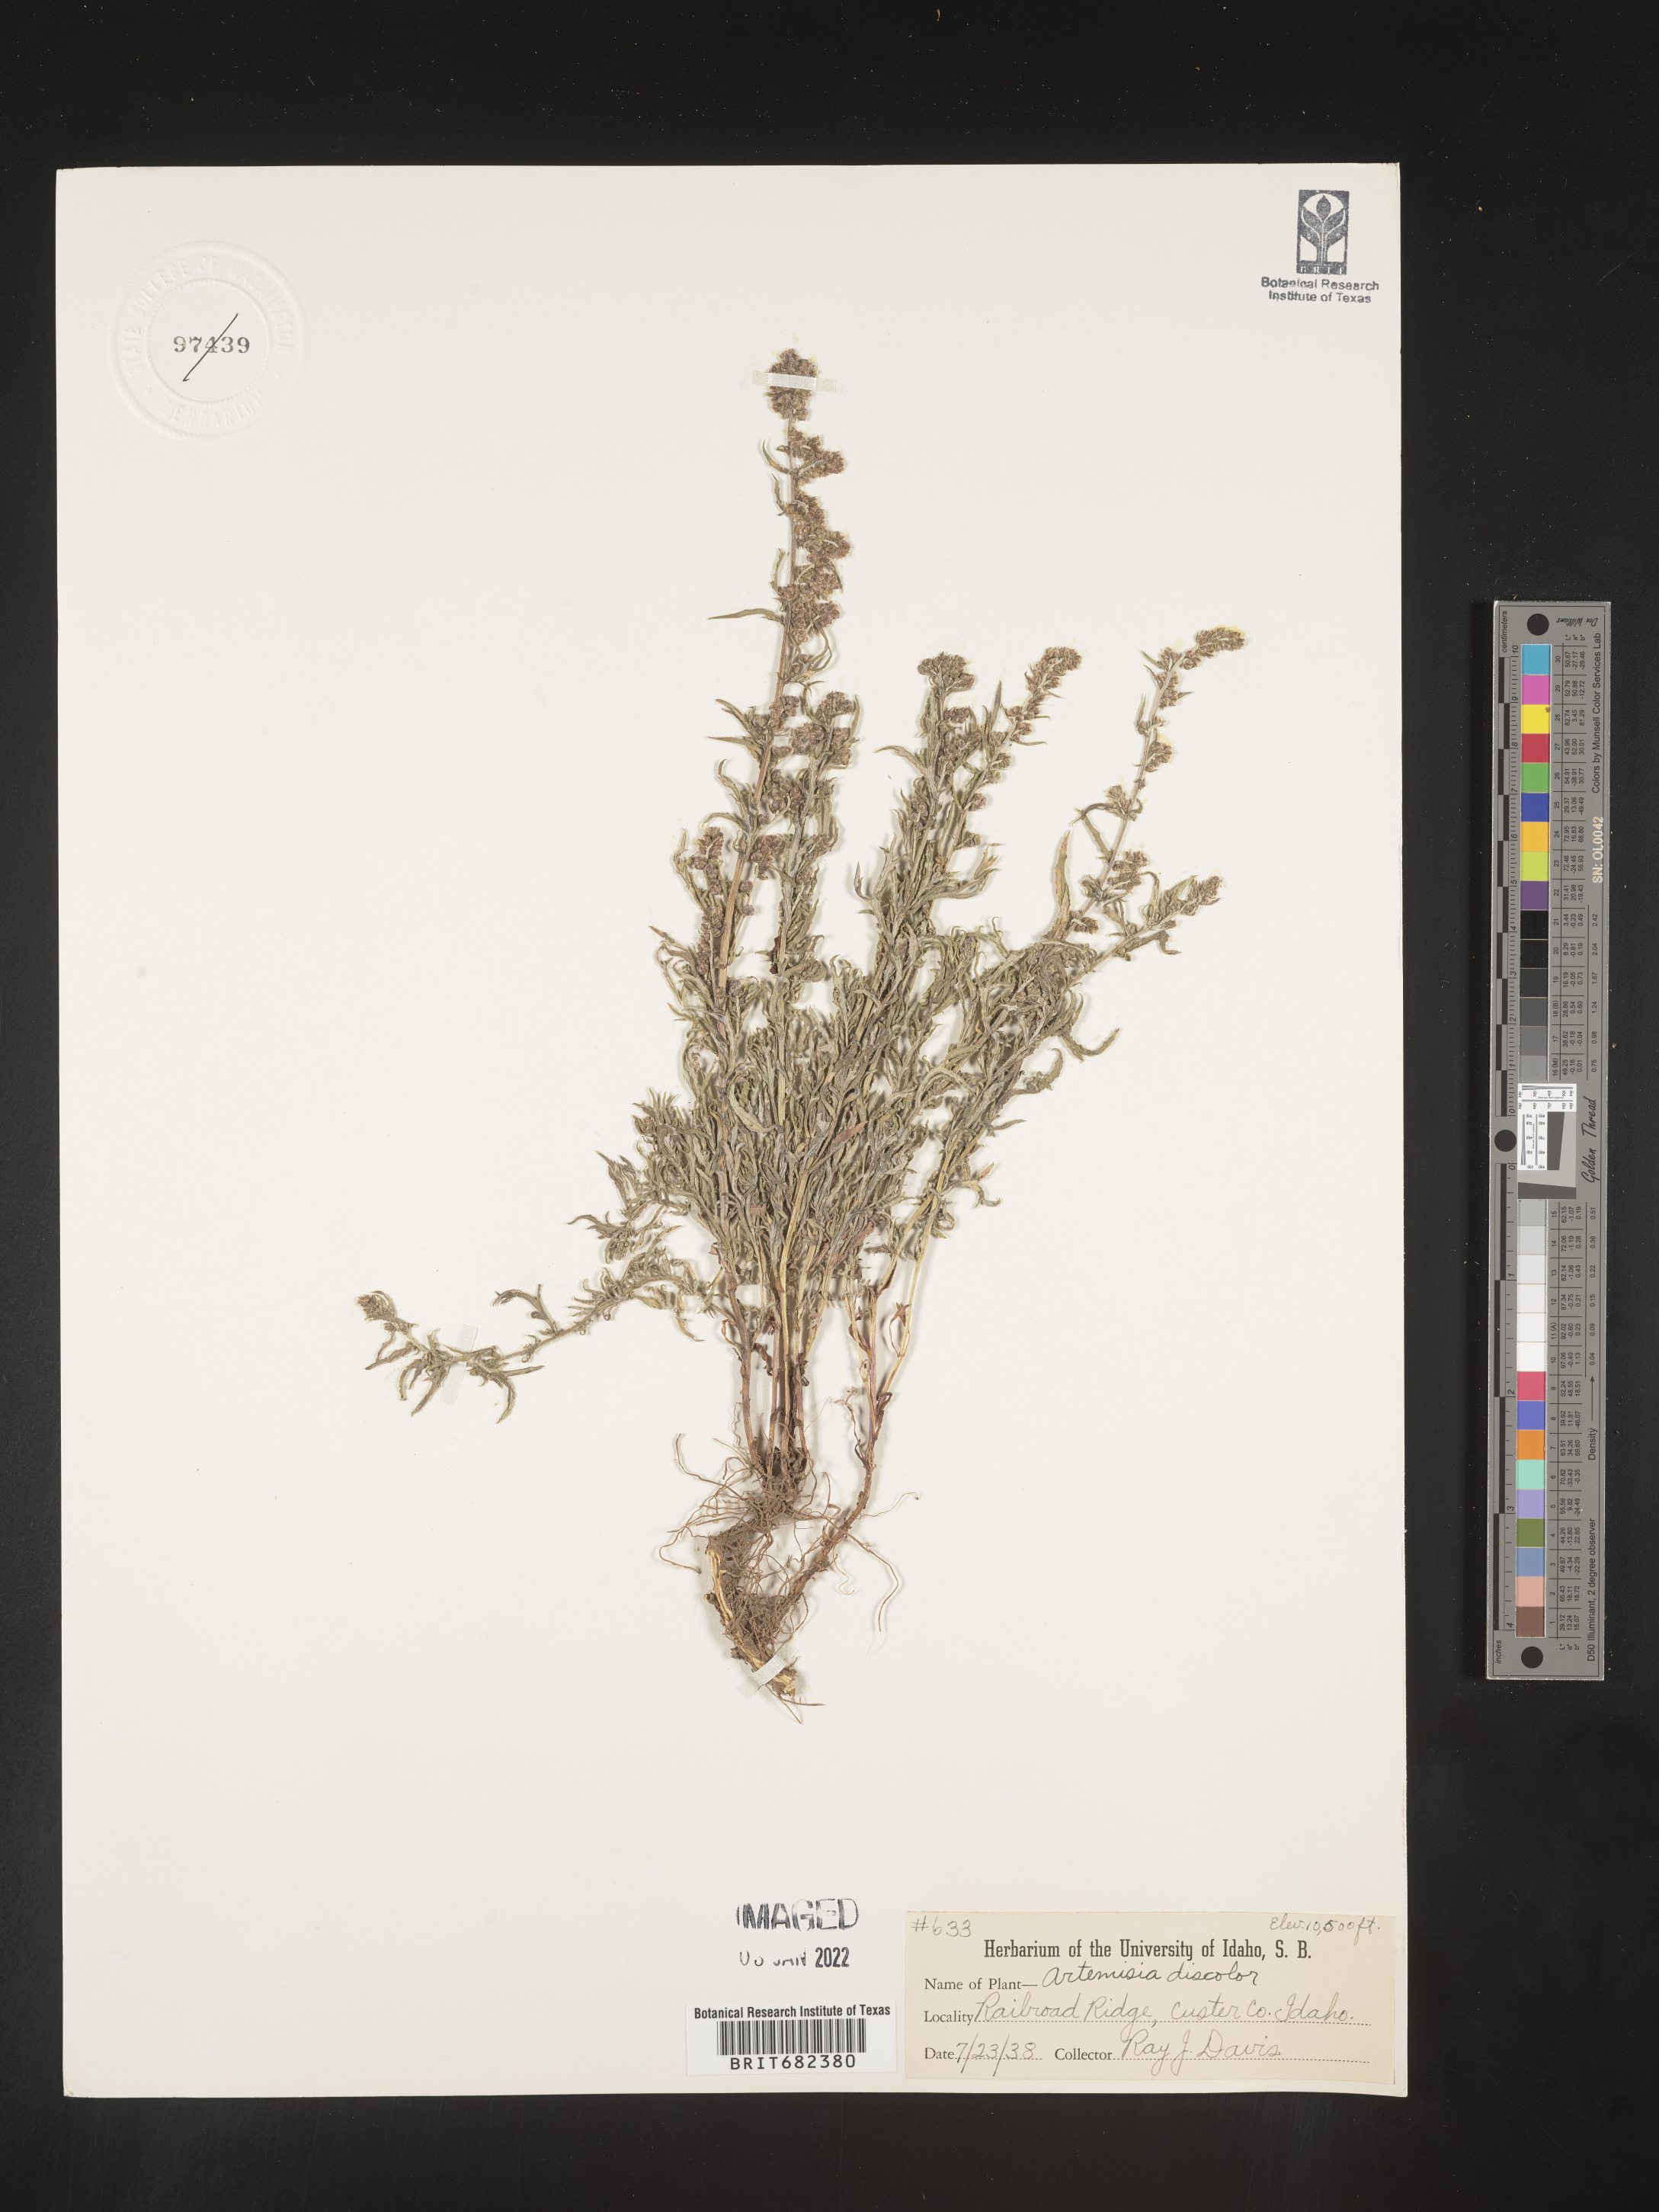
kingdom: Plantae
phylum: Tracheophyta
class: Magnoliopsida
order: Asterales
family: Asteraceae
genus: Artemisia
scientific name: Artemisia vulgaris
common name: Mugwort
